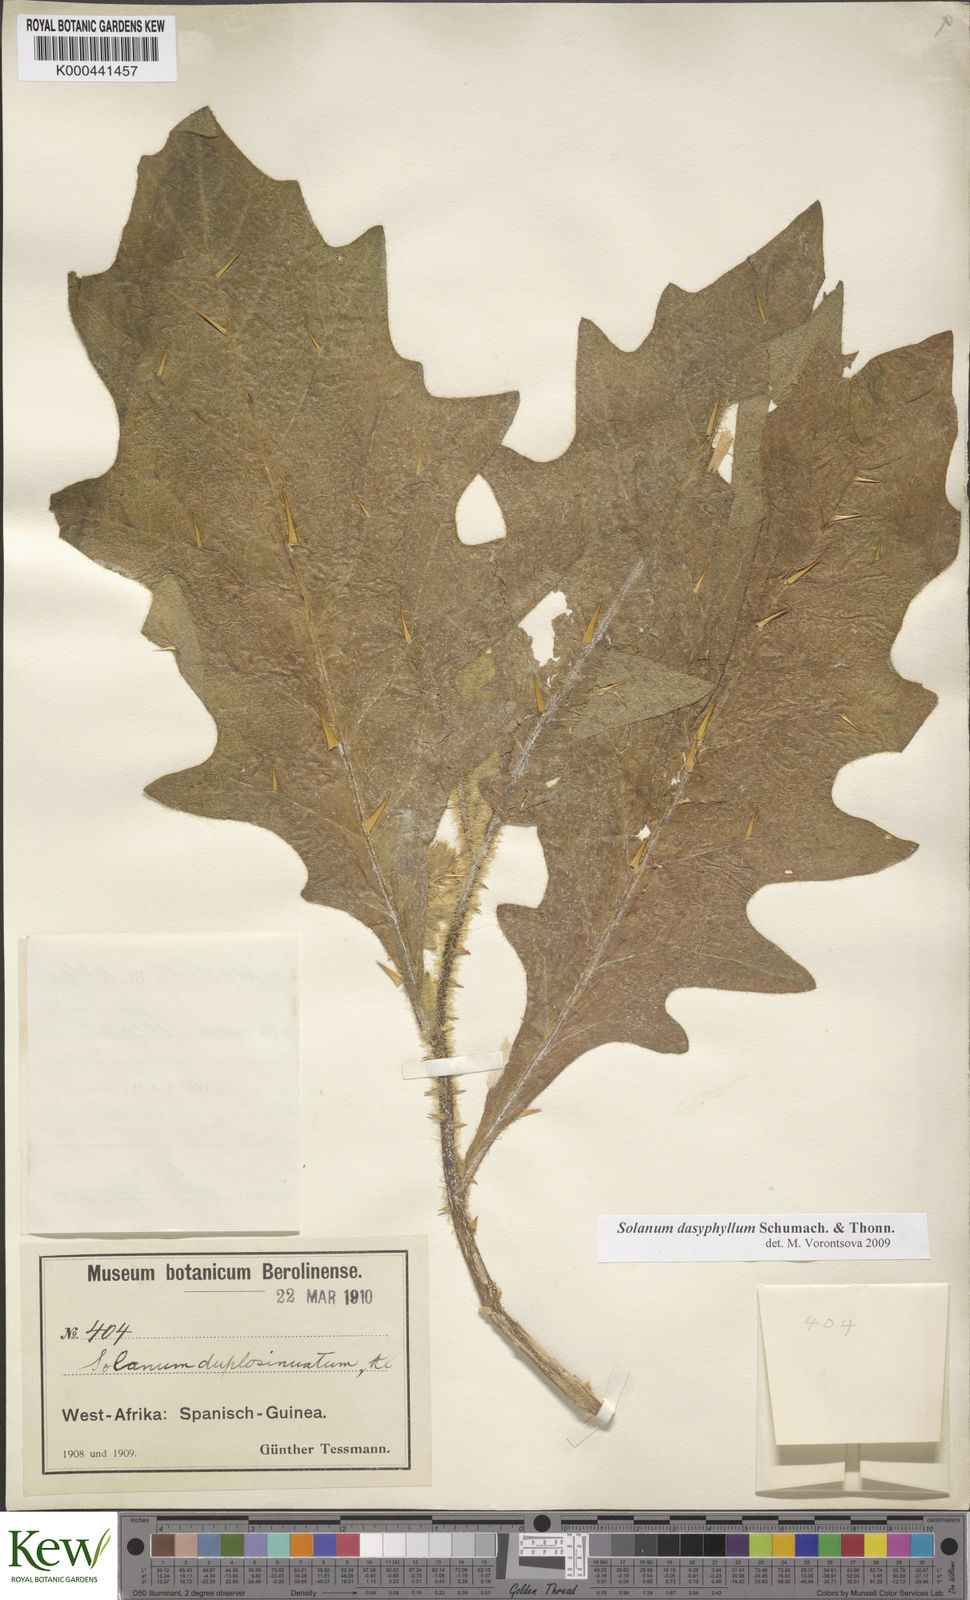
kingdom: Plantae
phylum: Tracheophyta
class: Magnoliopsida
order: Solanales
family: Solanaceae
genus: Solanum
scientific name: Solanum dasyphyllum
